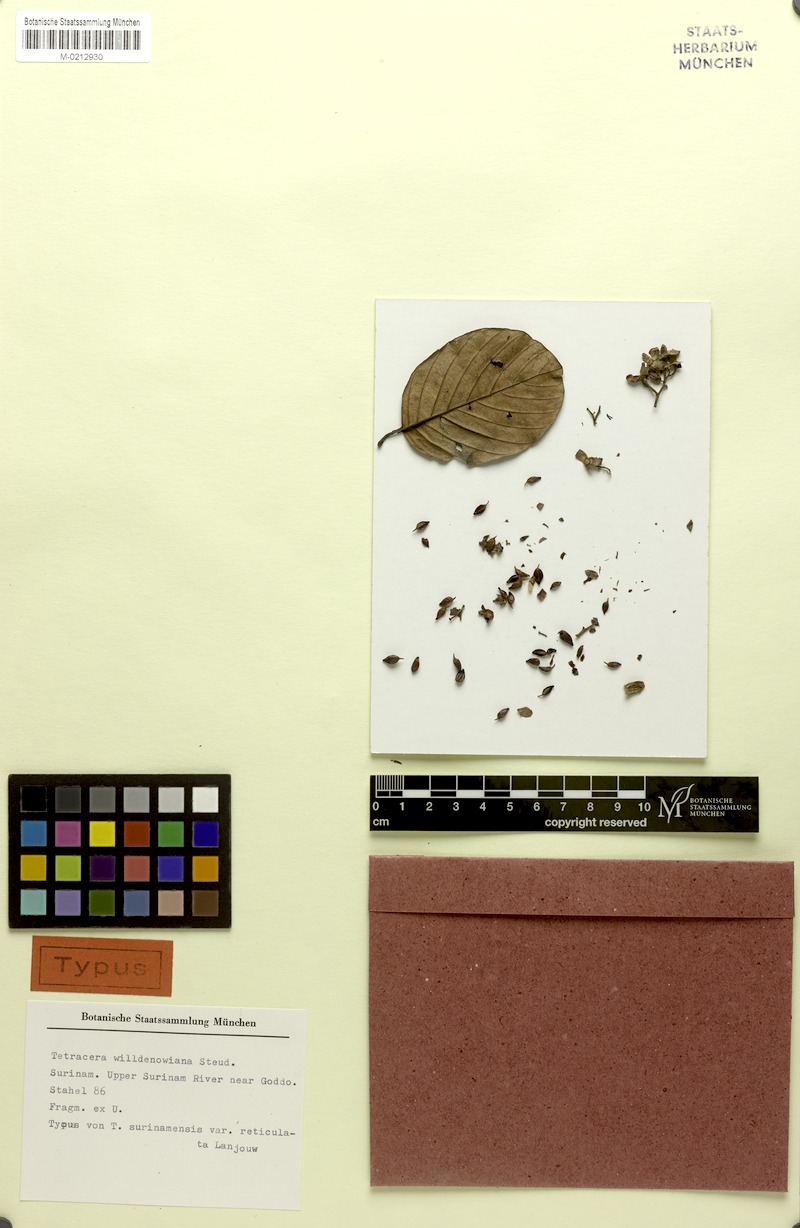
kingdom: Plantae
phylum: Tracheophyta
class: Magnoliopsida
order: Dilleniales
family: Dilleniaceae
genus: Tetracera
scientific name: Tetracera willdenowiana
